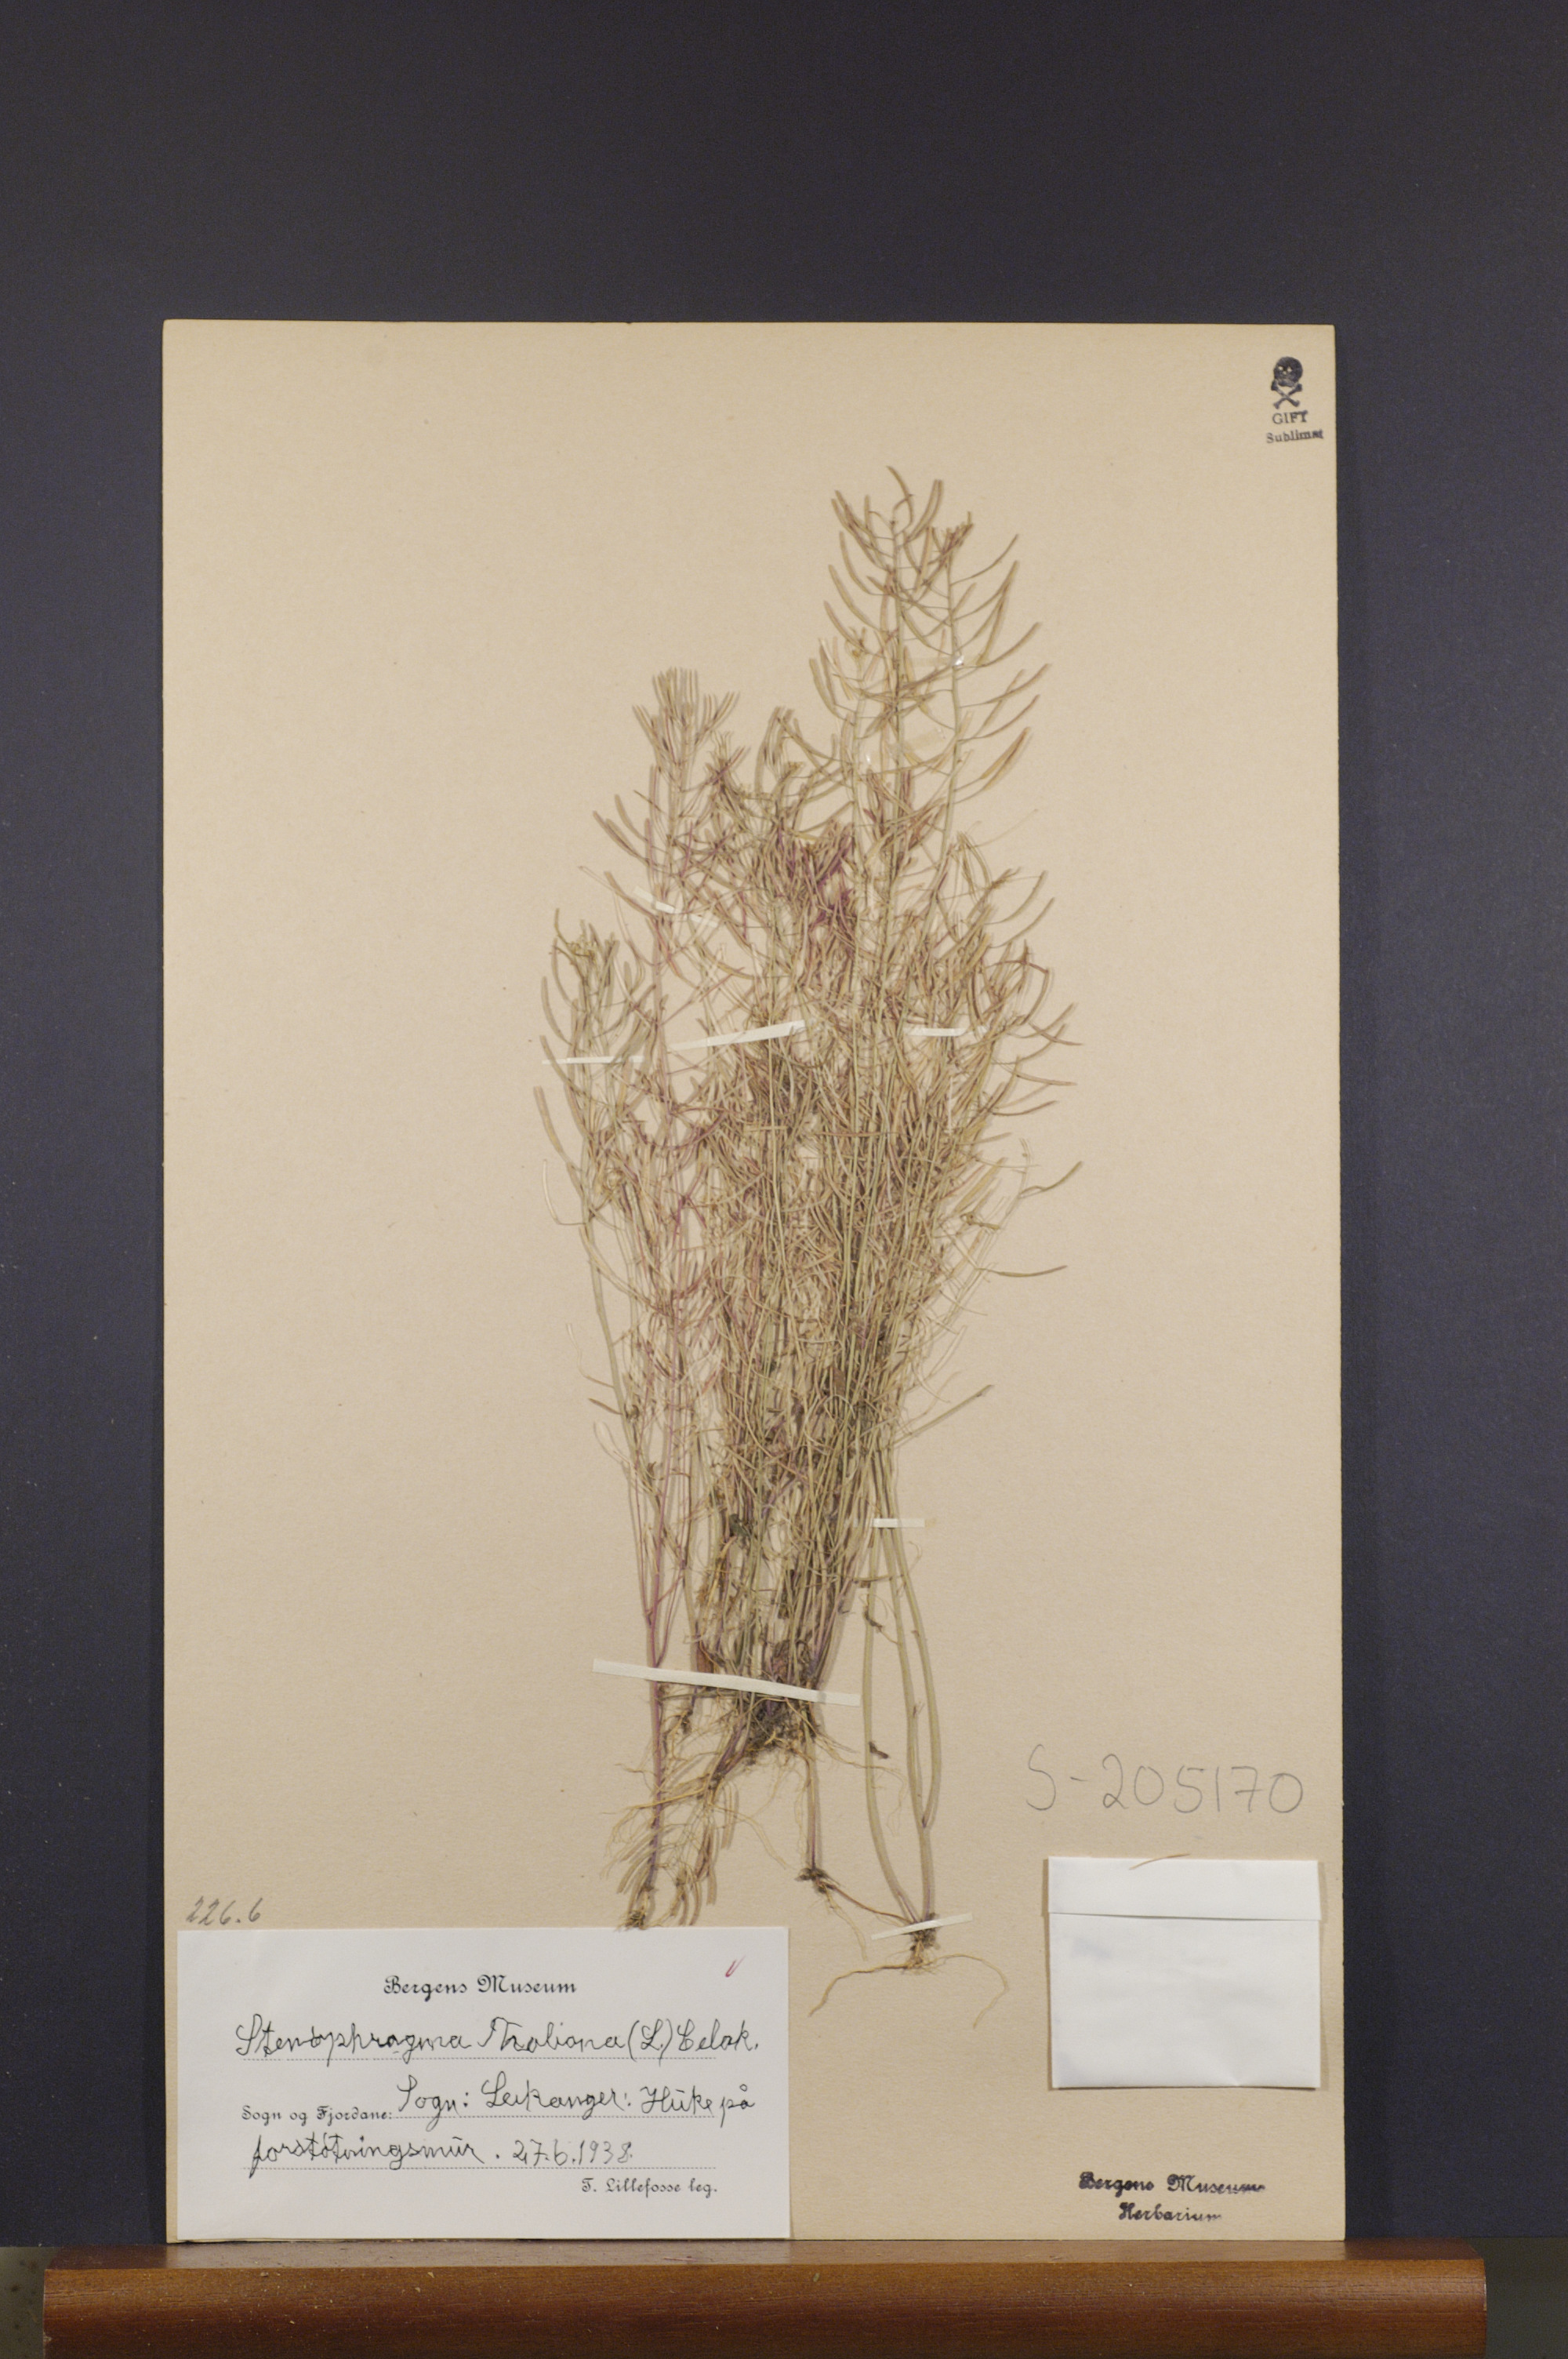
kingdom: Plantae
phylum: Tracheophyta
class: Magnoliopsida
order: Brassicales
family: Brassicaceae
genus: Arabidopsis
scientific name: Arabidopsis thaliana
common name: Thale cress
